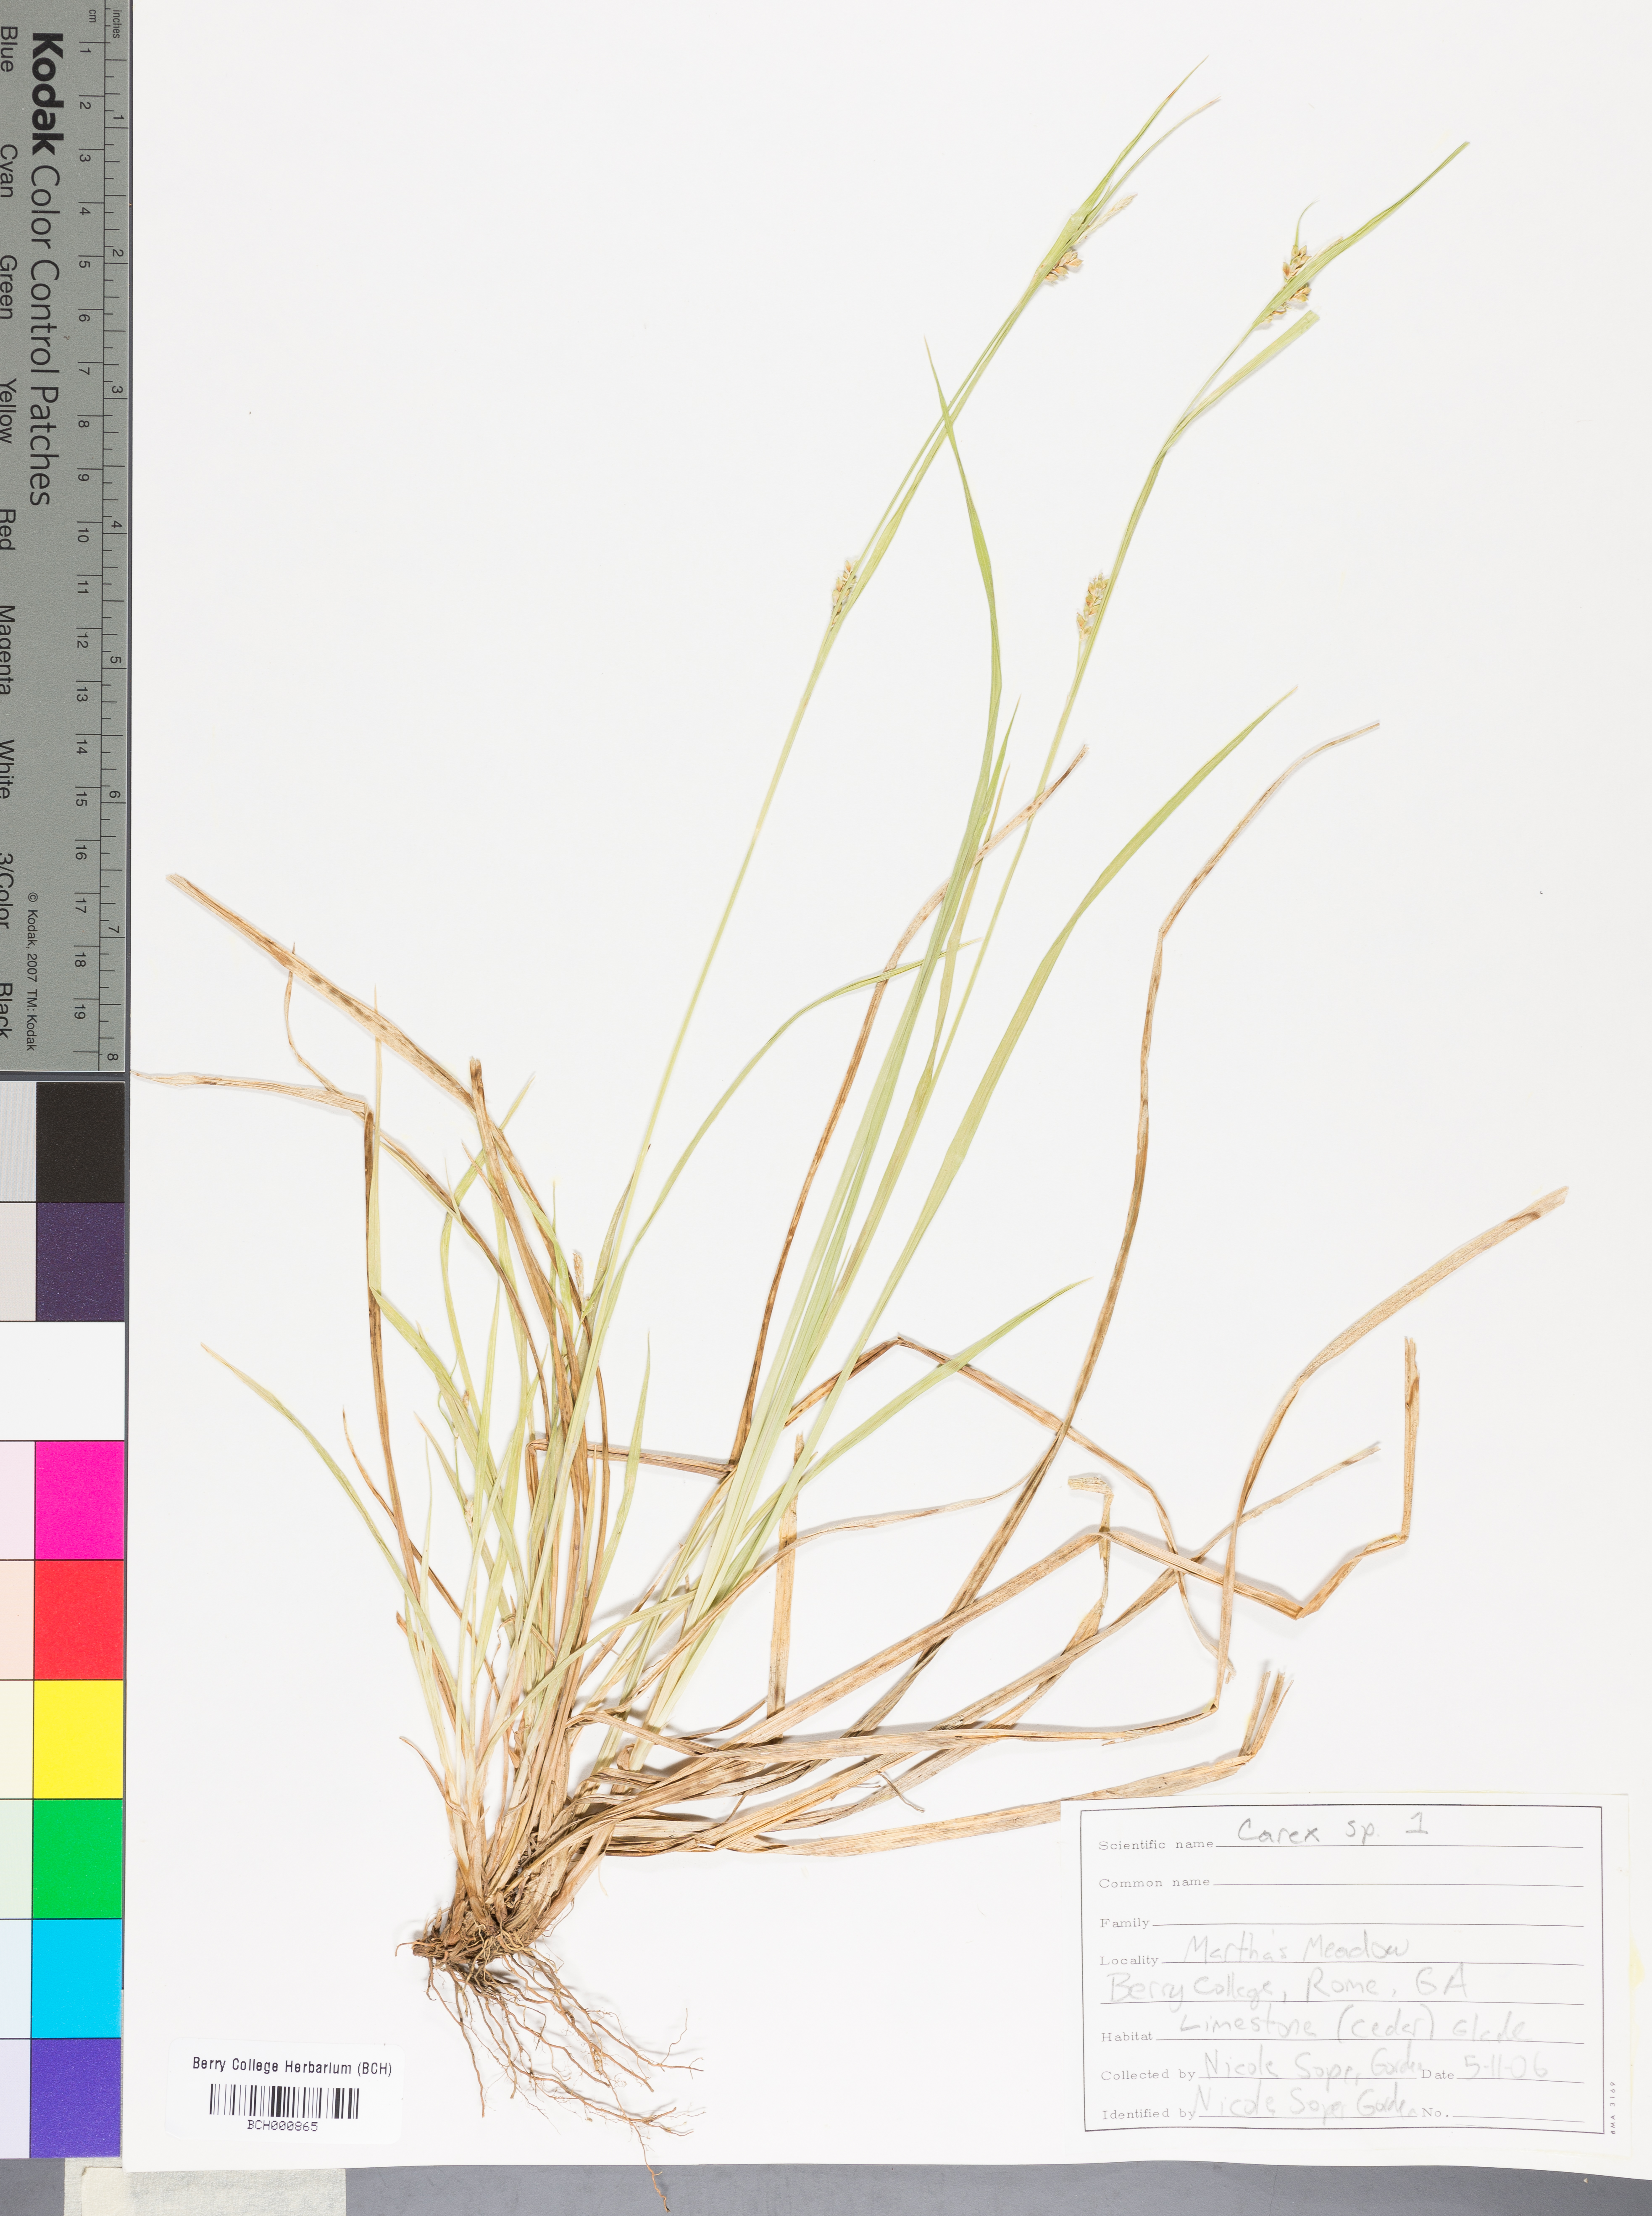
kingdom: Plantae
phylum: Tracheophyta
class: Liliopsida
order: Poales
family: Cyperaceae
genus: Carex
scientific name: Carex
